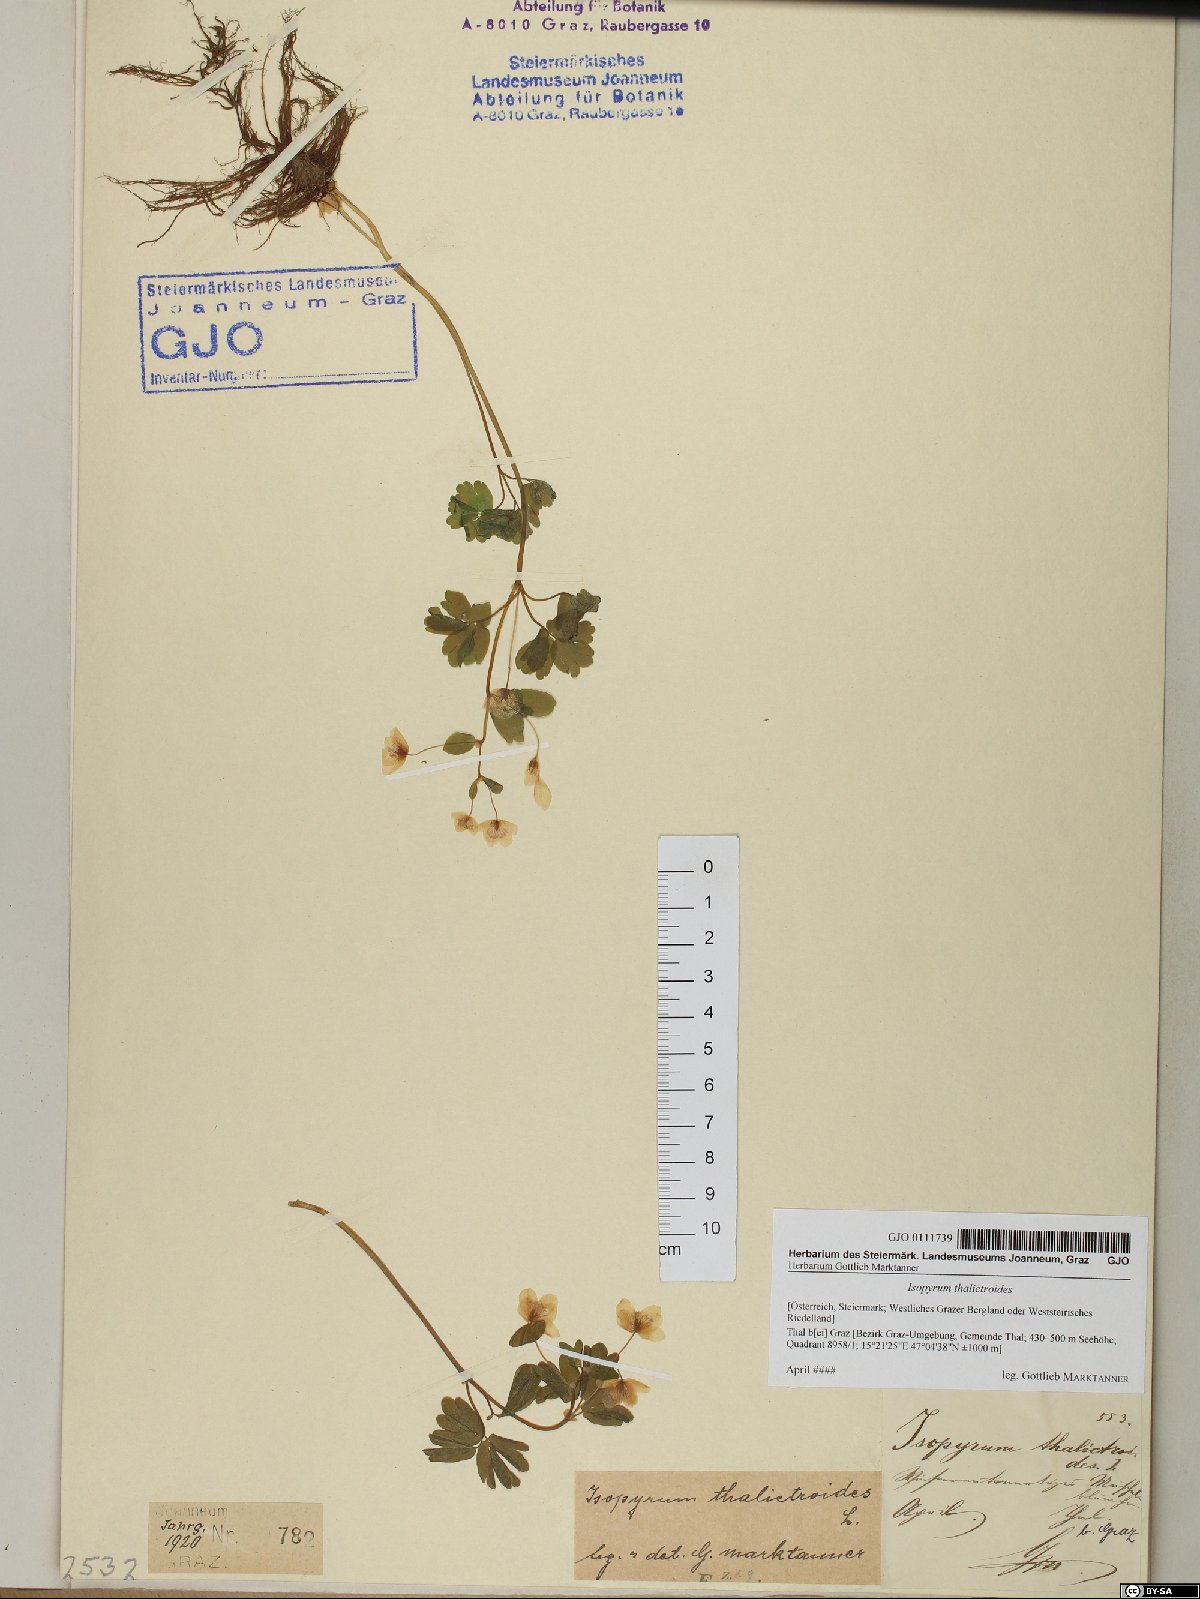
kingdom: Plantae
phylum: Tracheophyta
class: Magnoliopsida
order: Ranunculales
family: Ranunculaceae
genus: Isopyrum
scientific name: Isopyrum thalictroides
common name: Isopyrum
